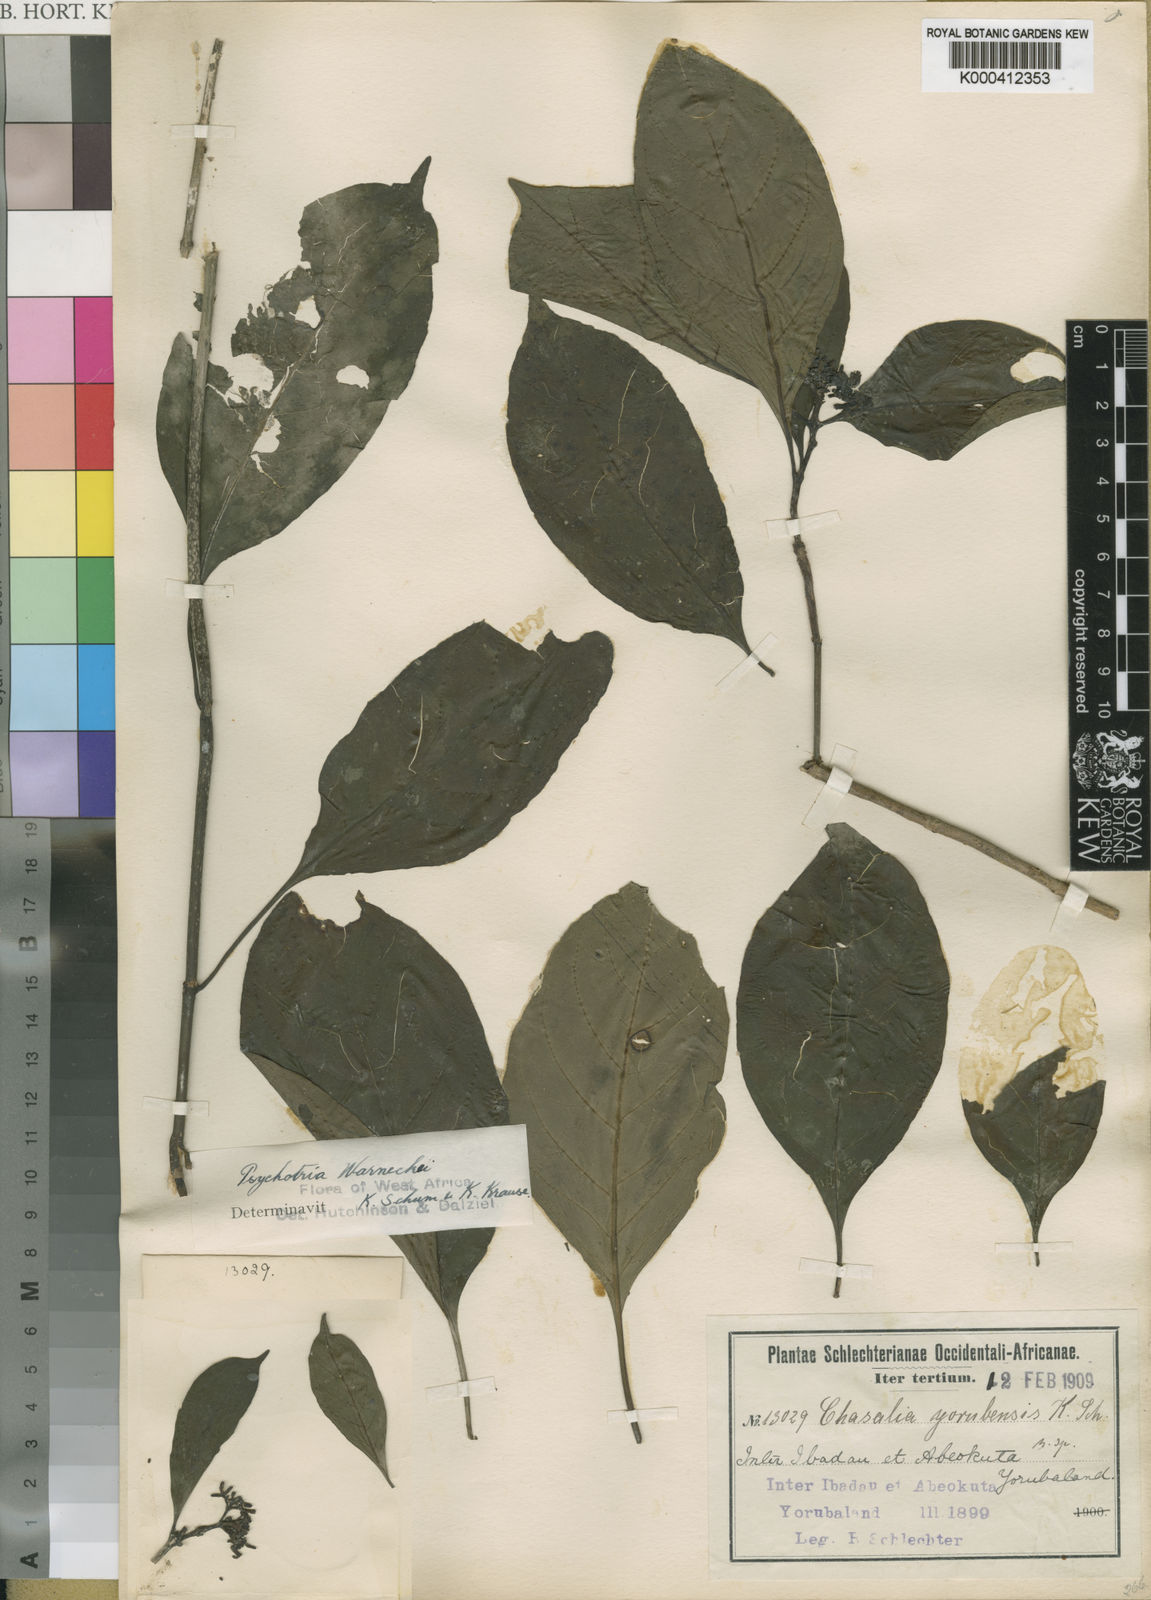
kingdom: Plantae
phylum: Tracheophyta
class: Magnoliopsida
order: Gentianales
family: Rubiaceae
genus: Chassalia
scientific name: Chassalia kolly
